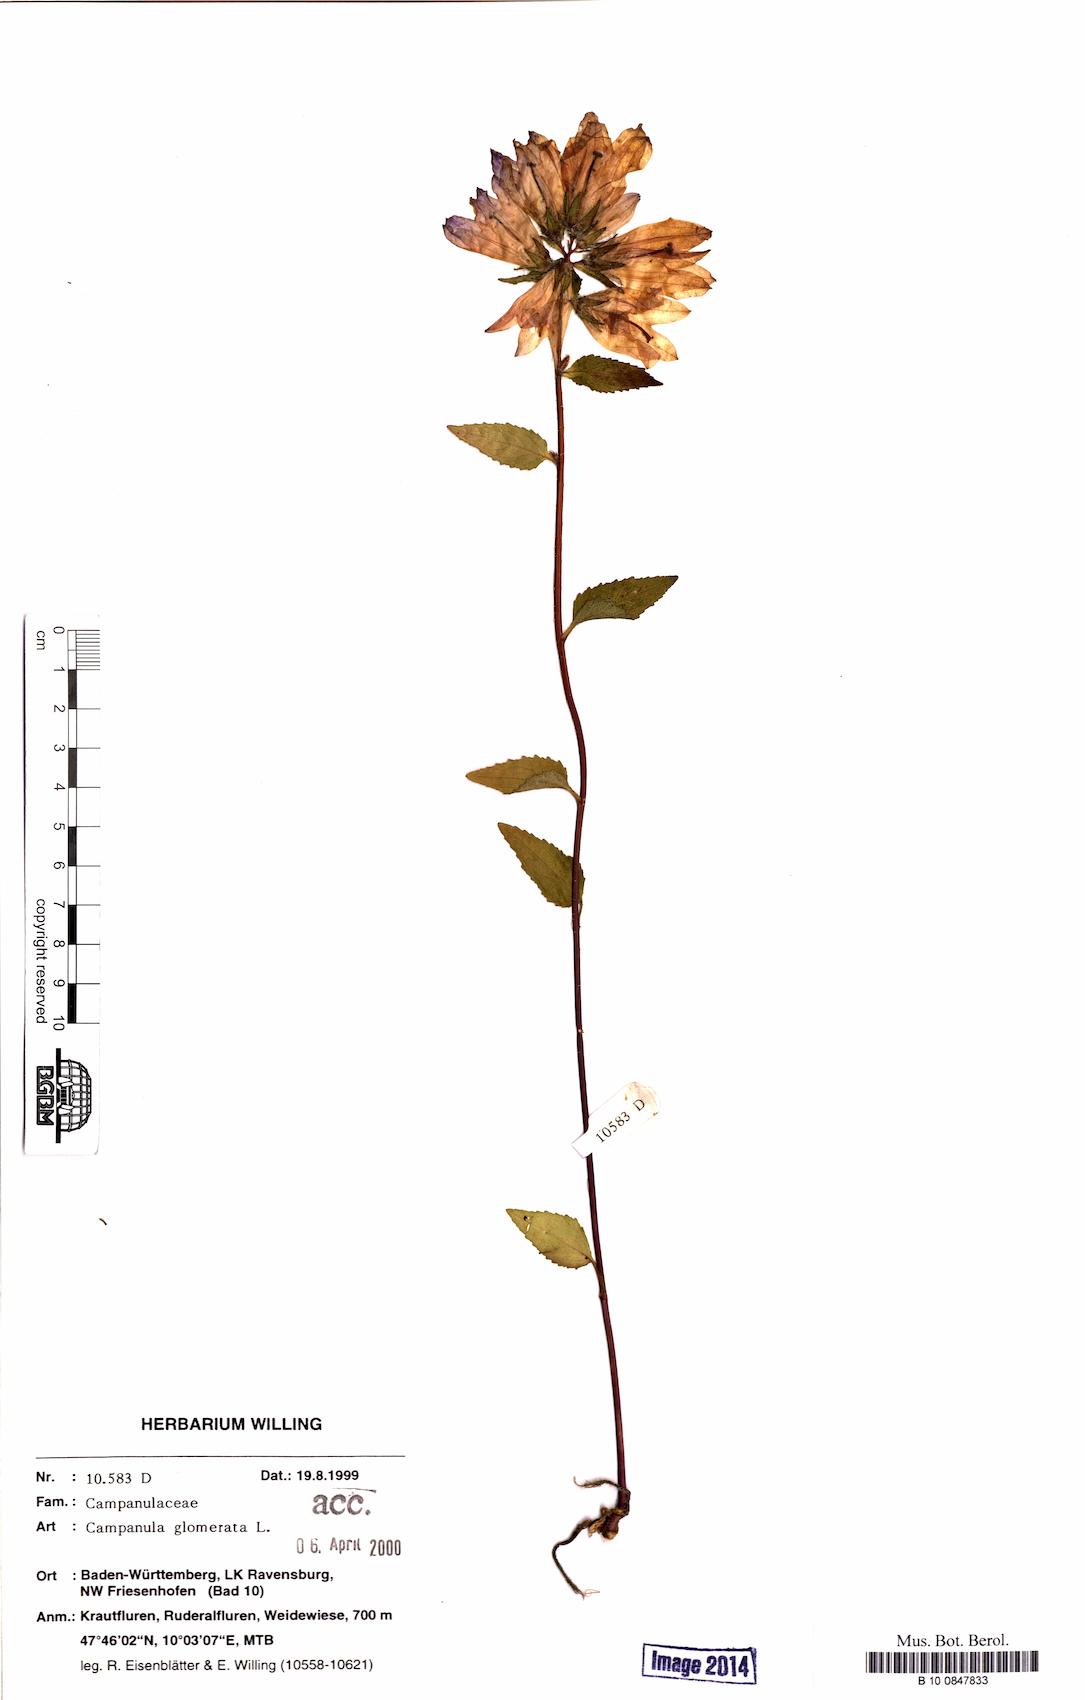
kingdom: Plantae
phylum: Tracheophyta
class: Magnoliopsida
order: Asterales
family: Campanulaceae
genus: Campanula
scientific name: Campanula glomerata
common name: Clustered bellflower
